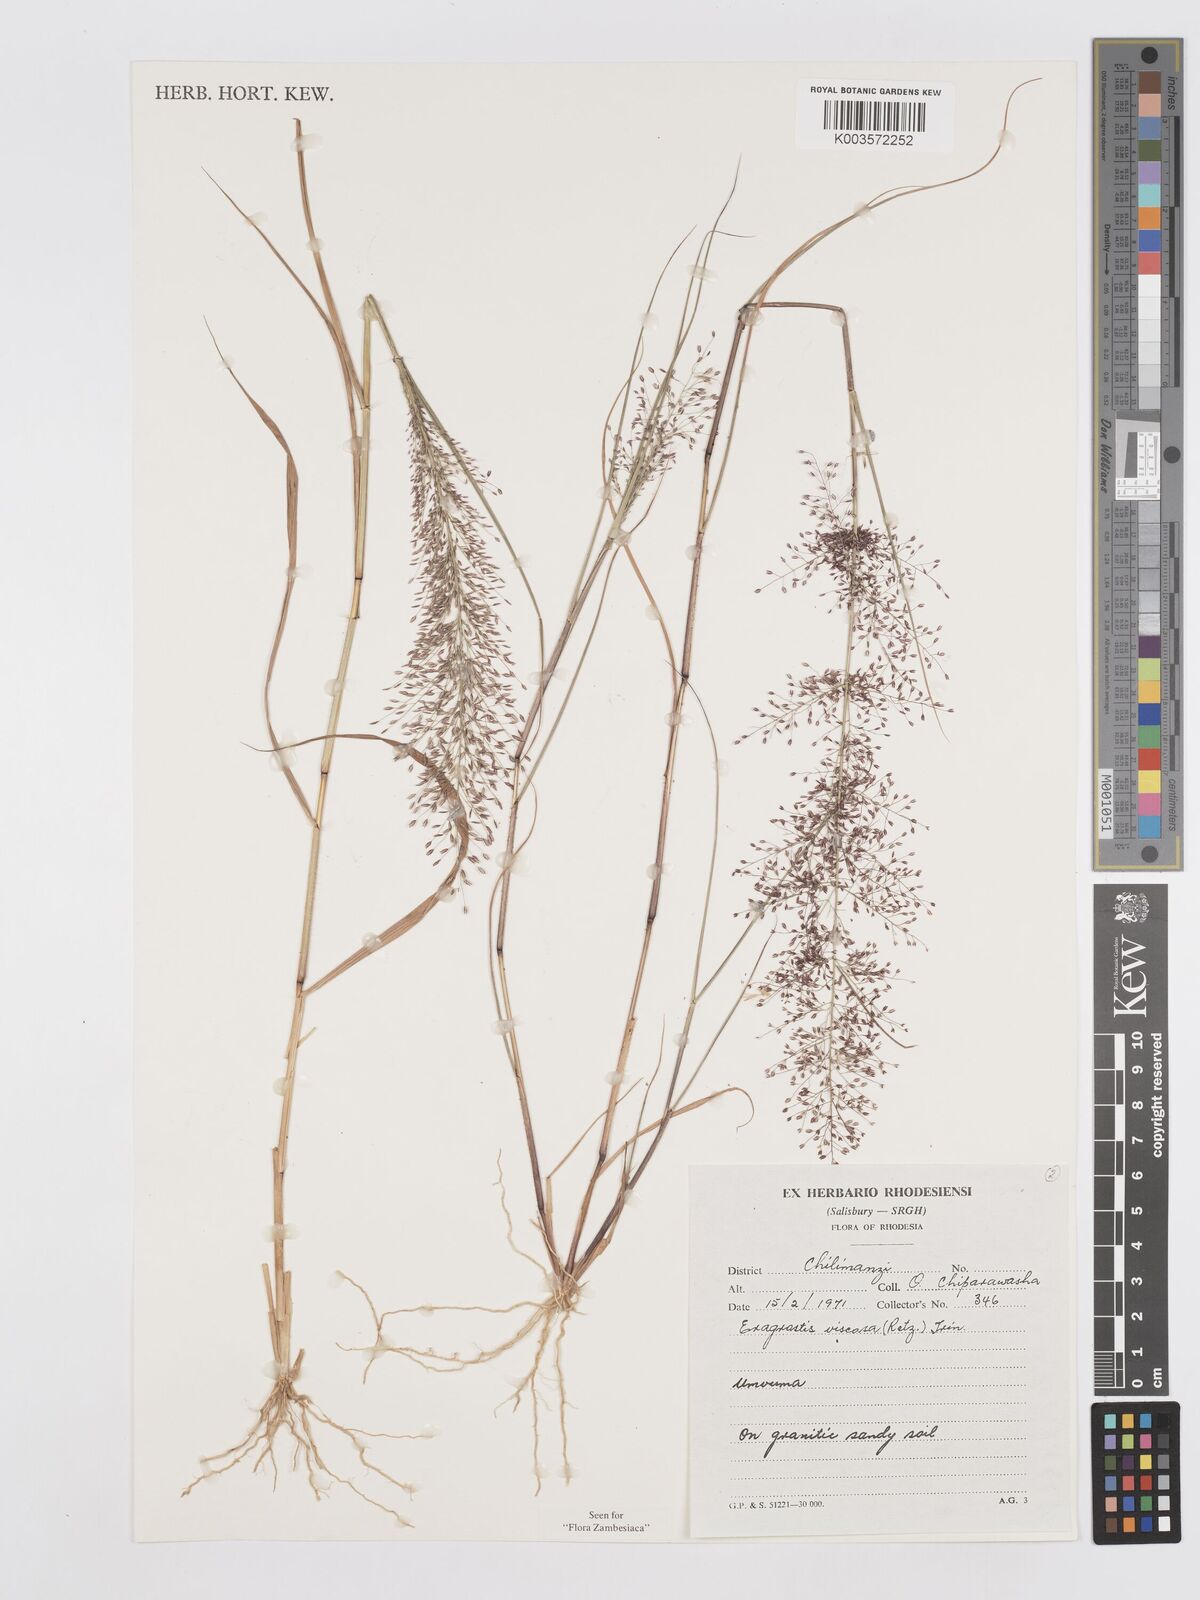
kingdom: Plantae
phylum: Tracheophyta
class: Liliopsida
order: Poales
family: Poaceae
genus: Eragrostis
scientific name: Eragrostis
